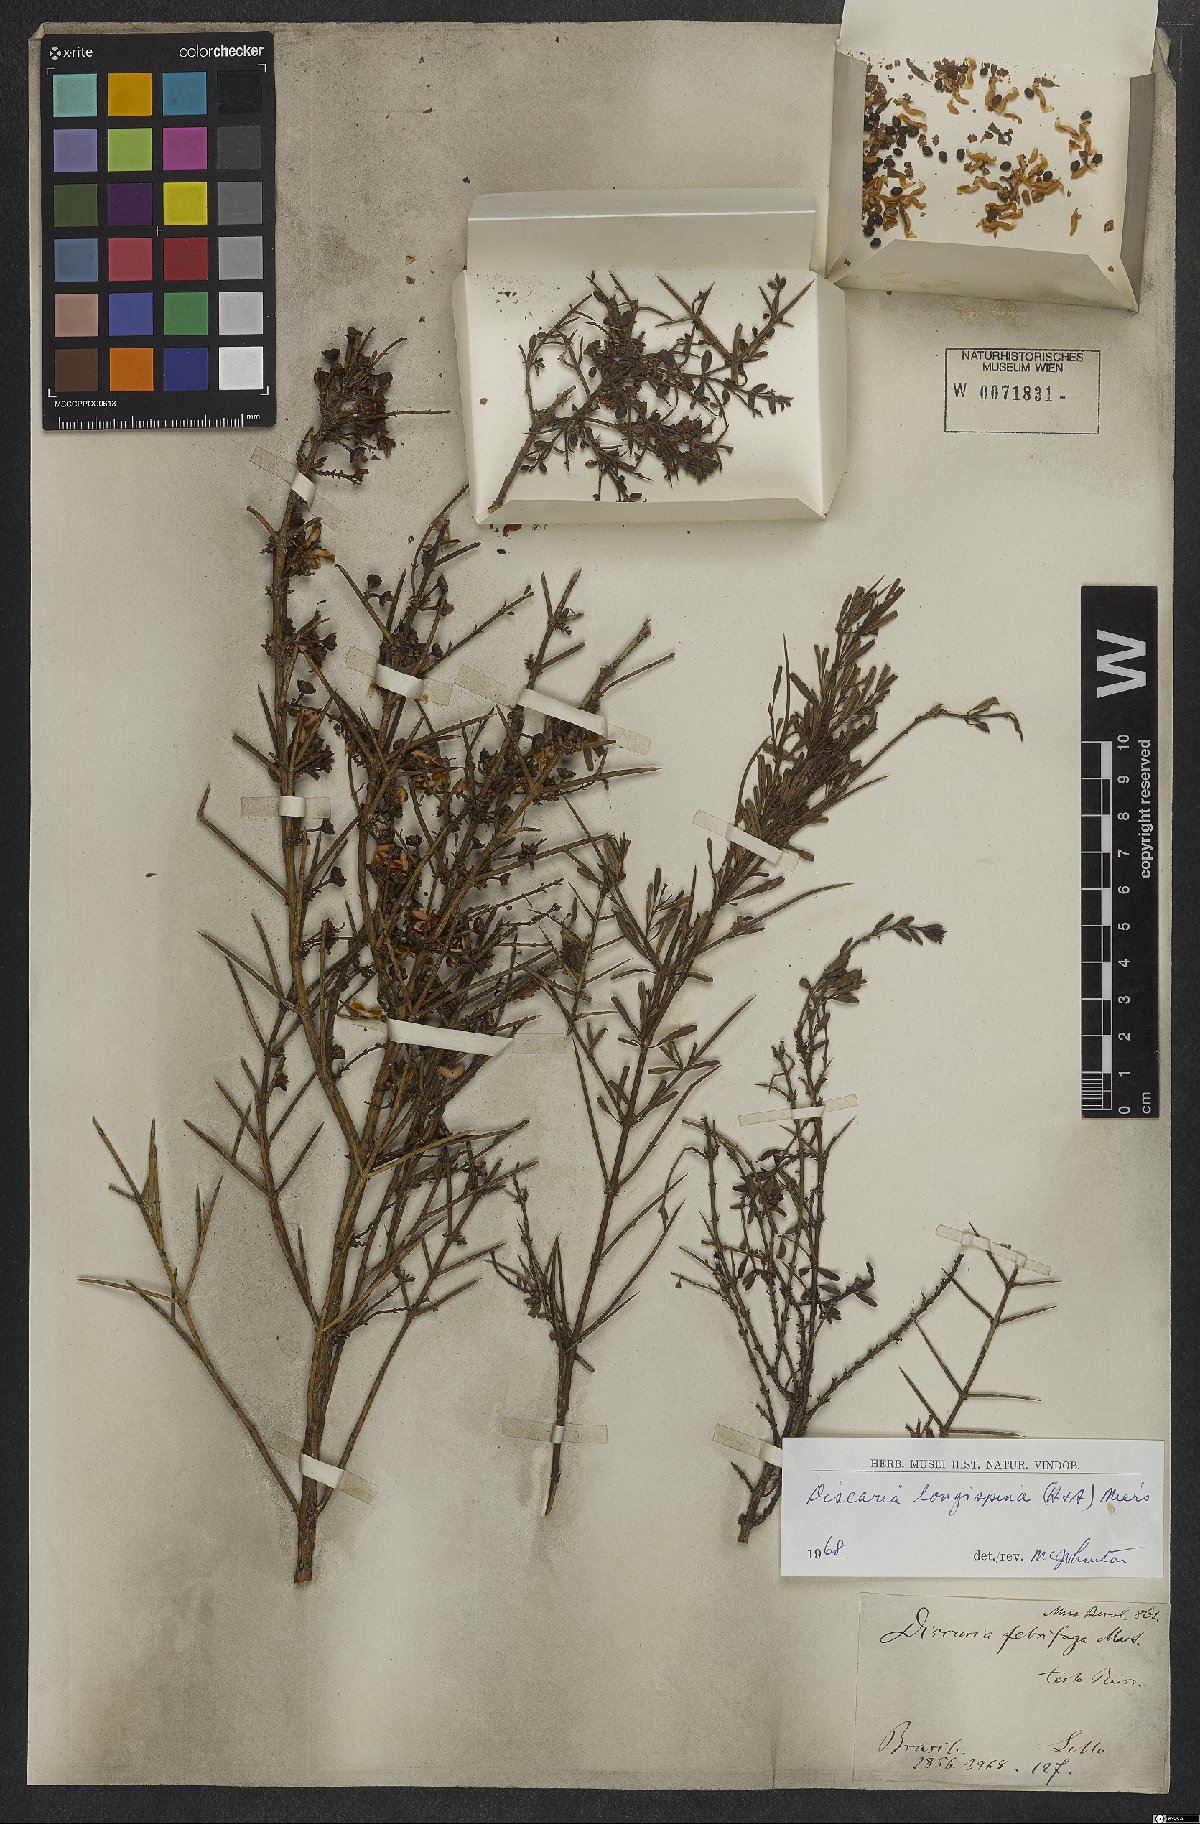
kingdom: Plantae
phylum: Tracheophyta
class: Magnoliopsida
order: Rosales
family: Rhamnaceae
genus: Discaria
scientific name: Discaria americana
